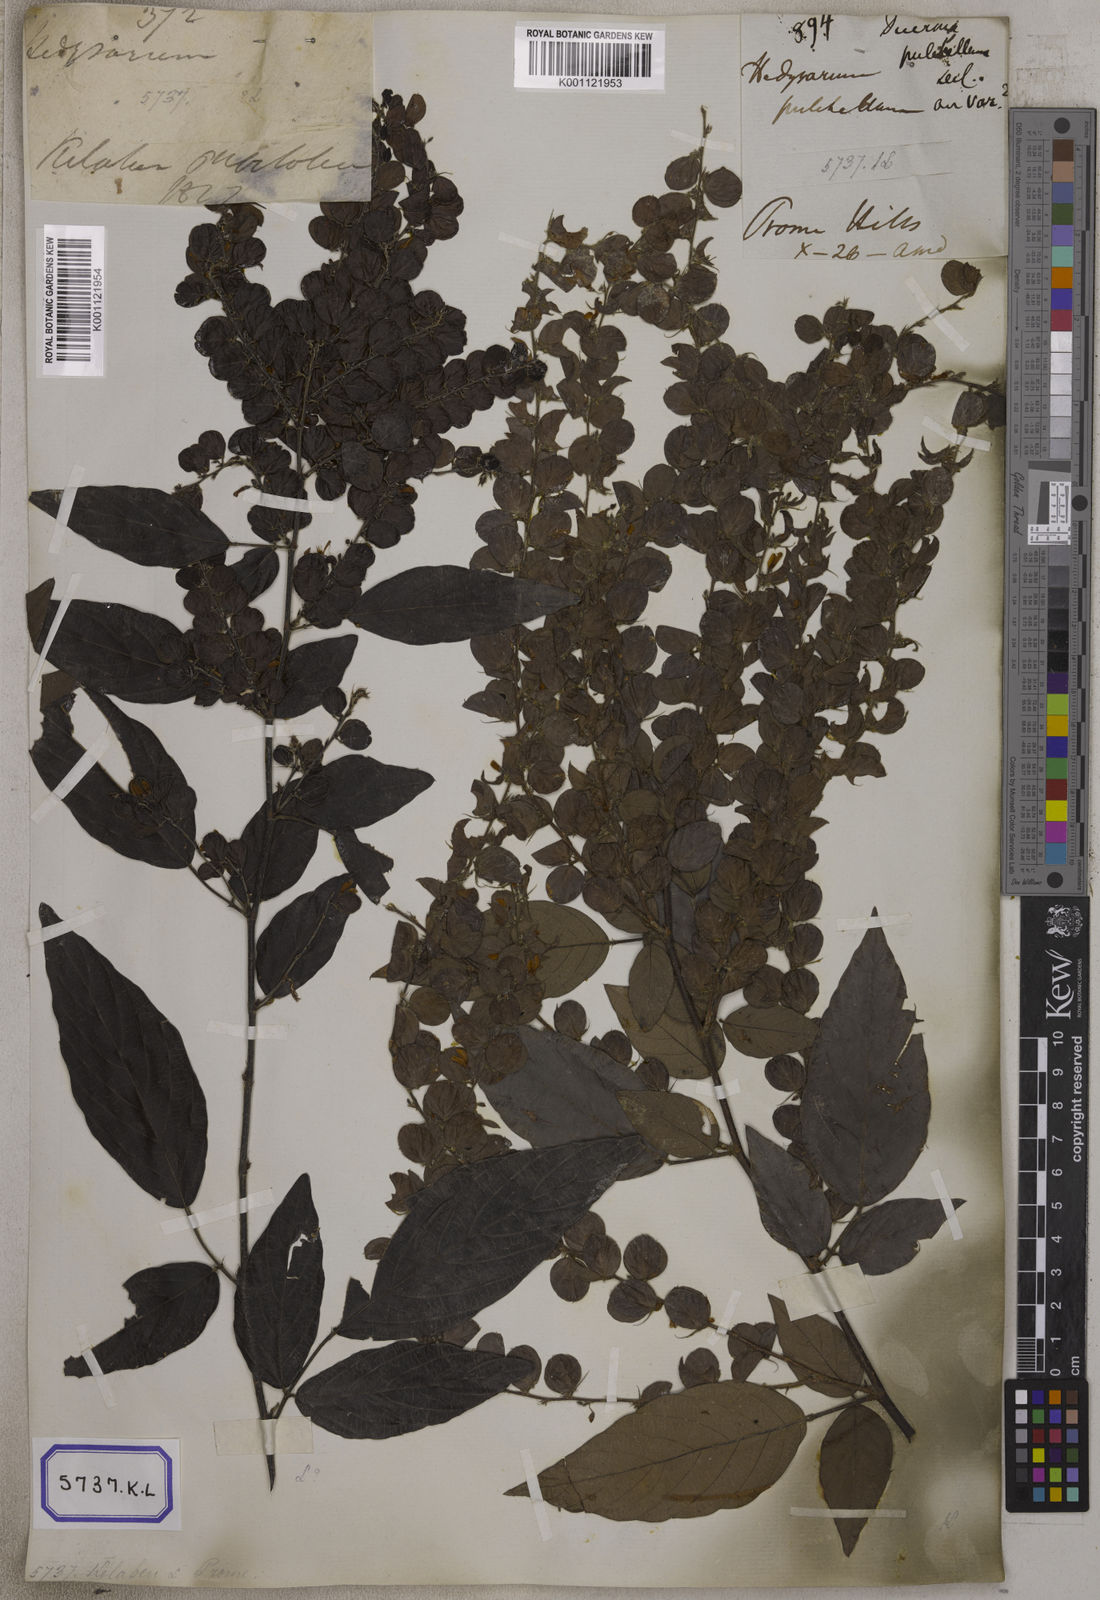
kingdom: Plantae
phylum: Tracheophyta
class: Magnoliopsida
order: Fabales
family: Fabaceae
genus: Phyllodium
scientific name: Phyllodium pulchellum
